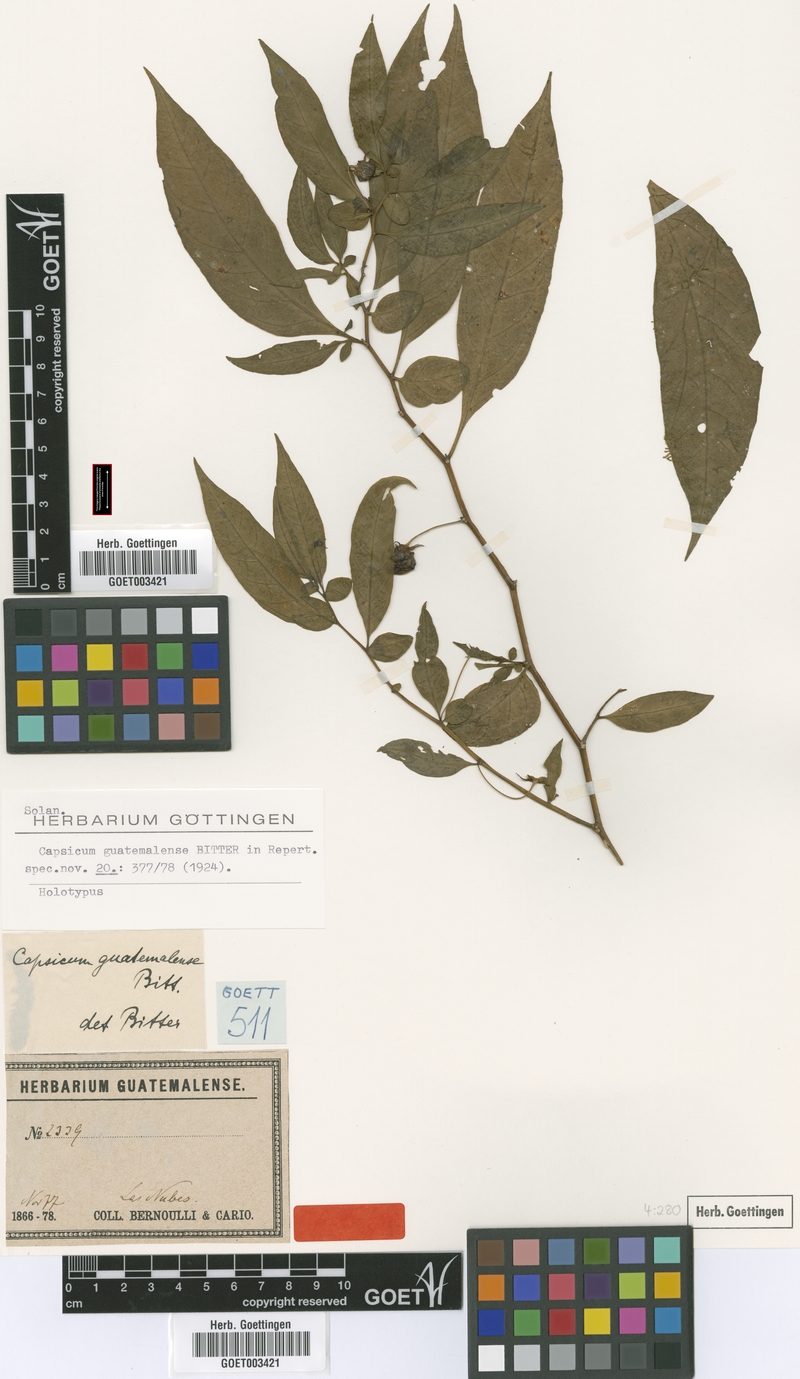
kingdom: Plantae
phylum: Tracheophyta
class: Magnoliopsida
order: Solanales
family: Solanaceae
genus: Capsicum
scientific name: Capsicum lanceolatum
